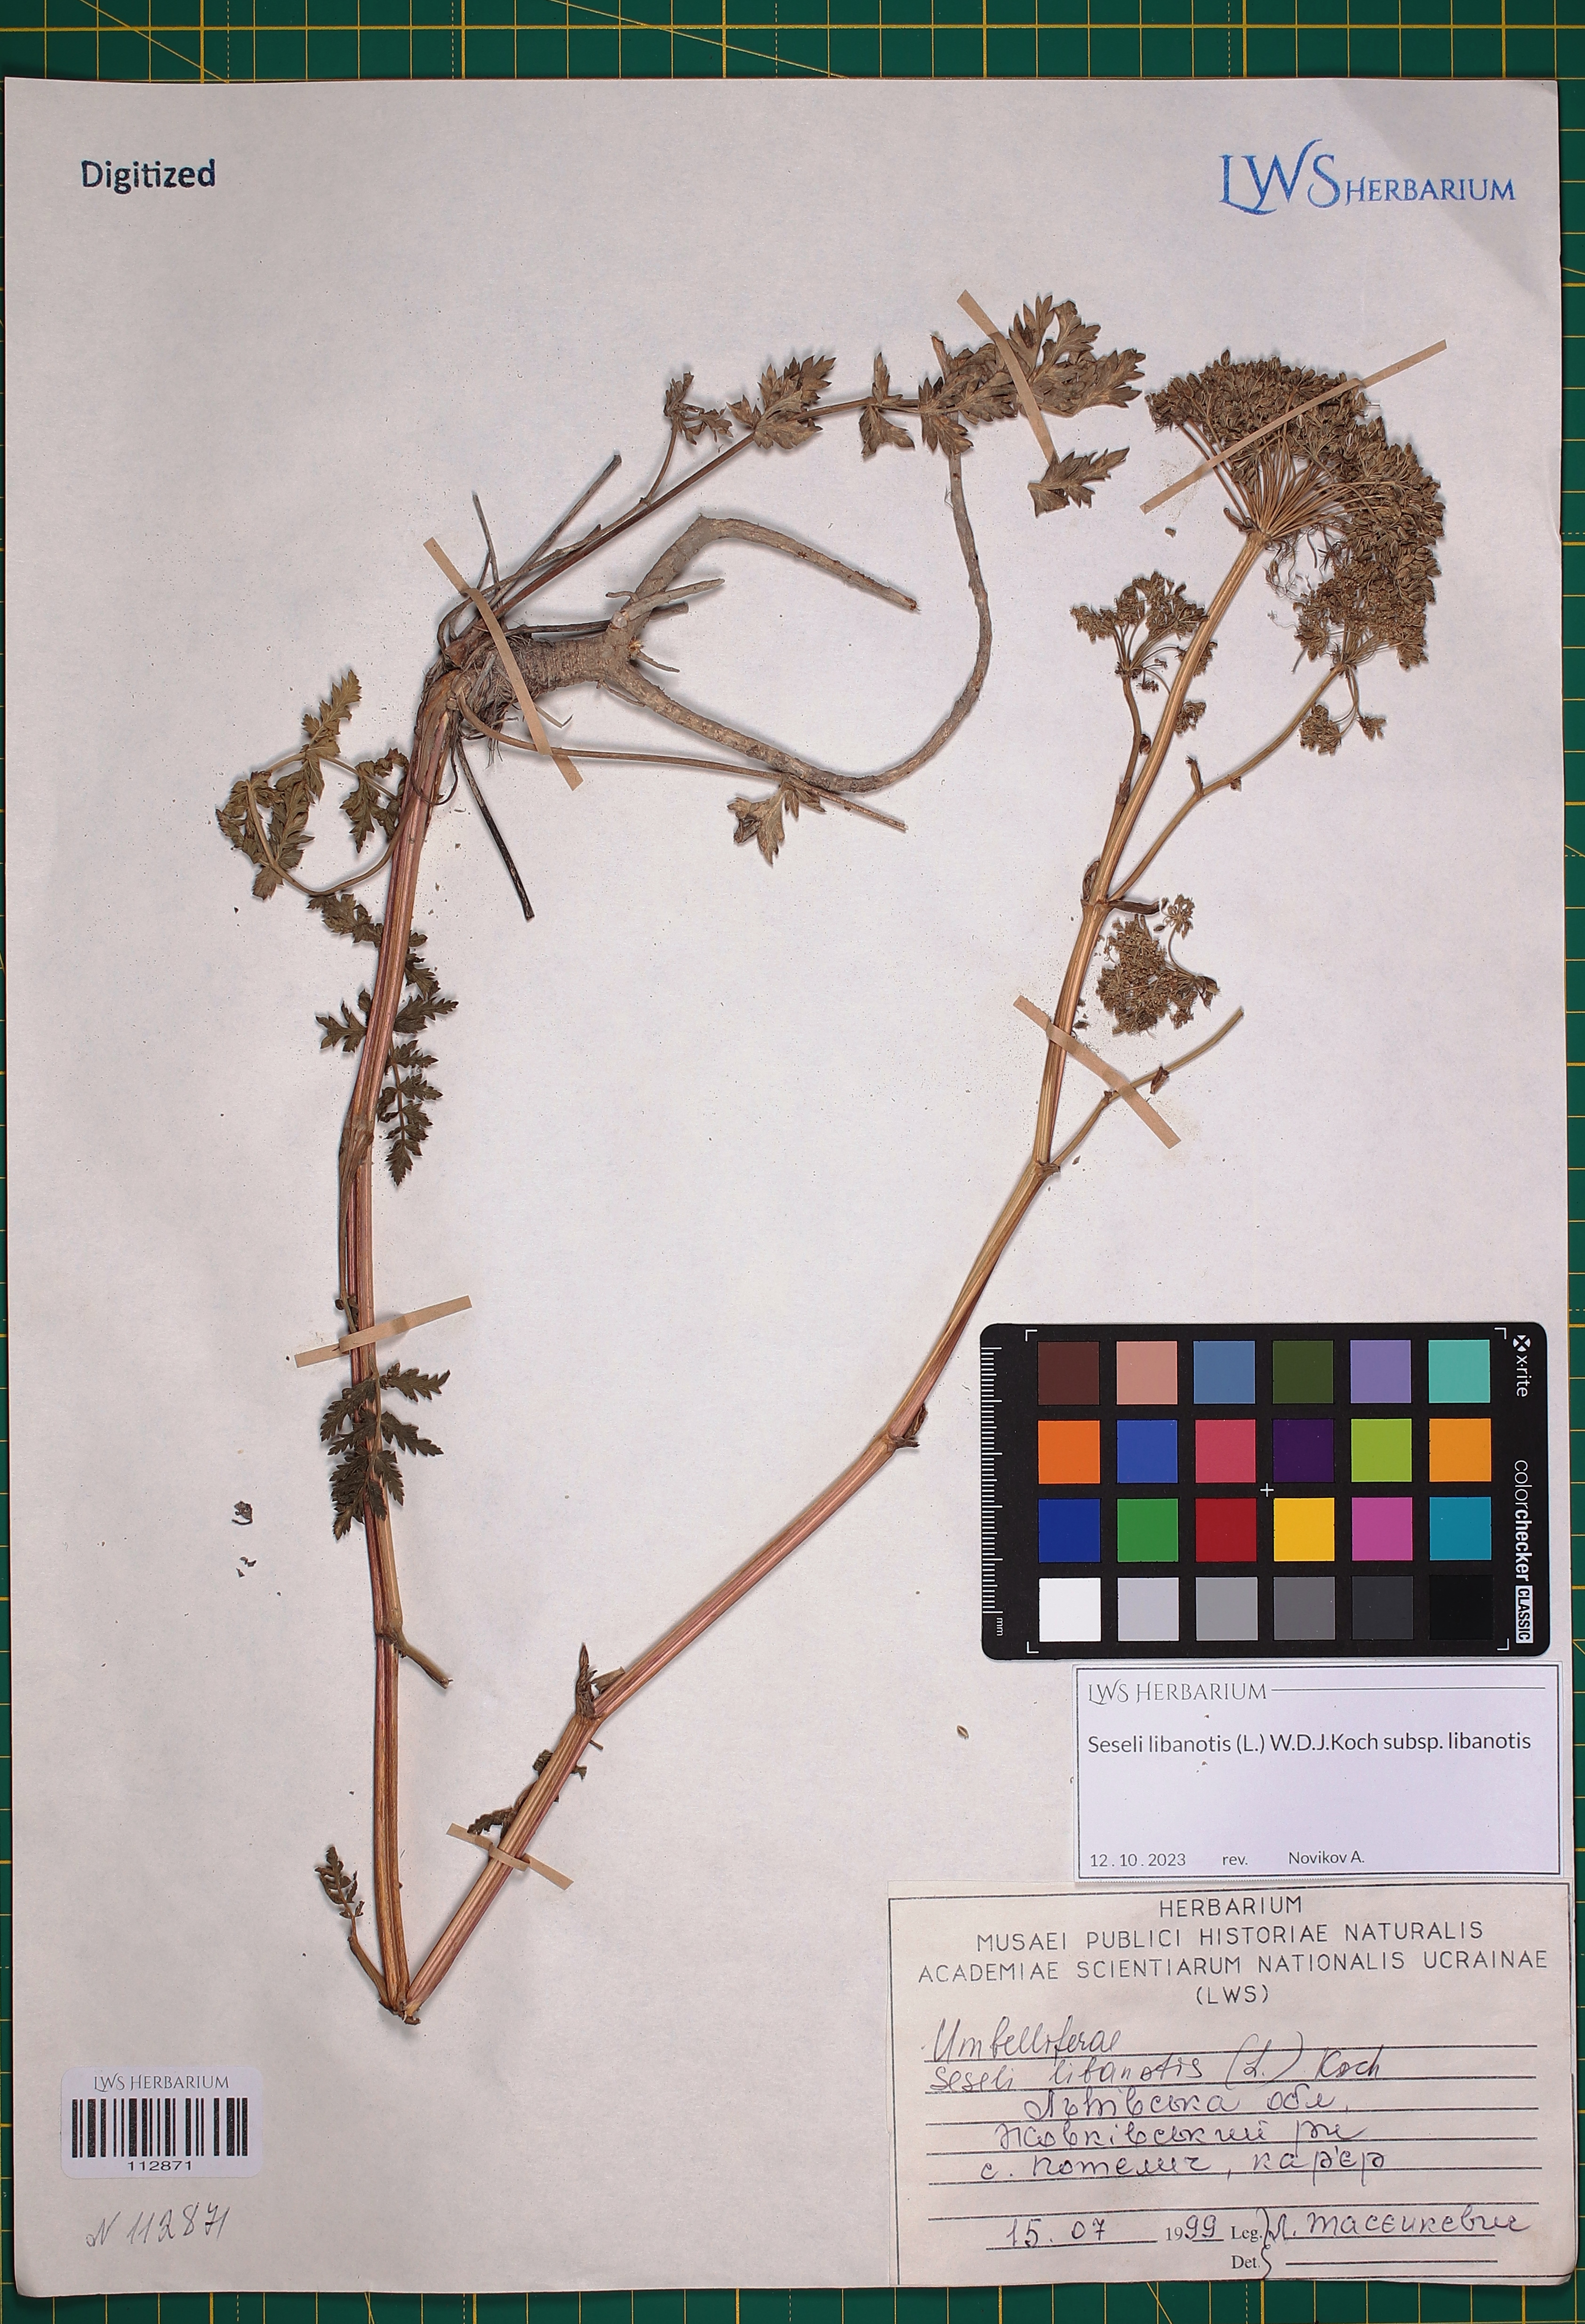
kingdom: Plantae
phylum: Tracheophyta
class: Magnoliopsida
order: Apiales
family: Apiaceae
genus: Seseli
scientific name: Seseli libanotis
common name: Mooncarrot
